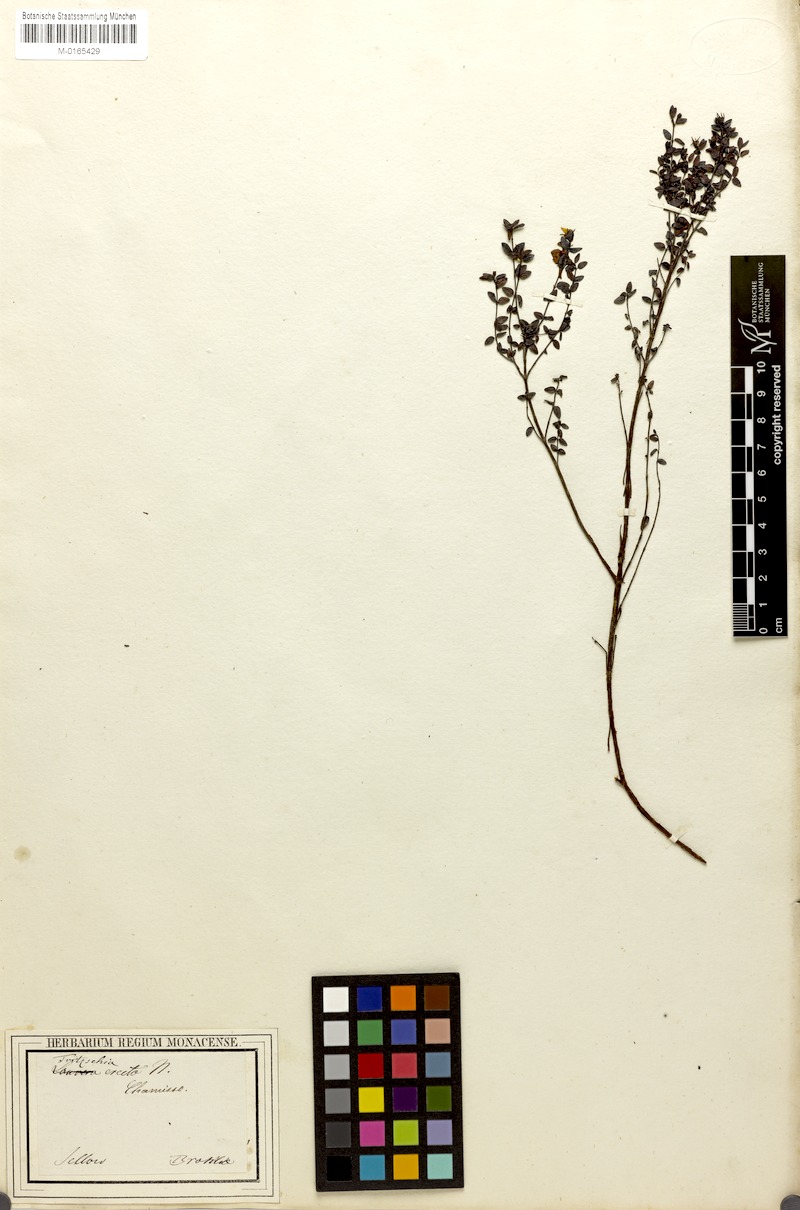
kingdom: Plantae
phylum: Tracheophyta
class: Magnoliopsida
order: Myrtales
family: Melastomataceae
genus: Fritzschia
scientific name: Fritzschia erecta
